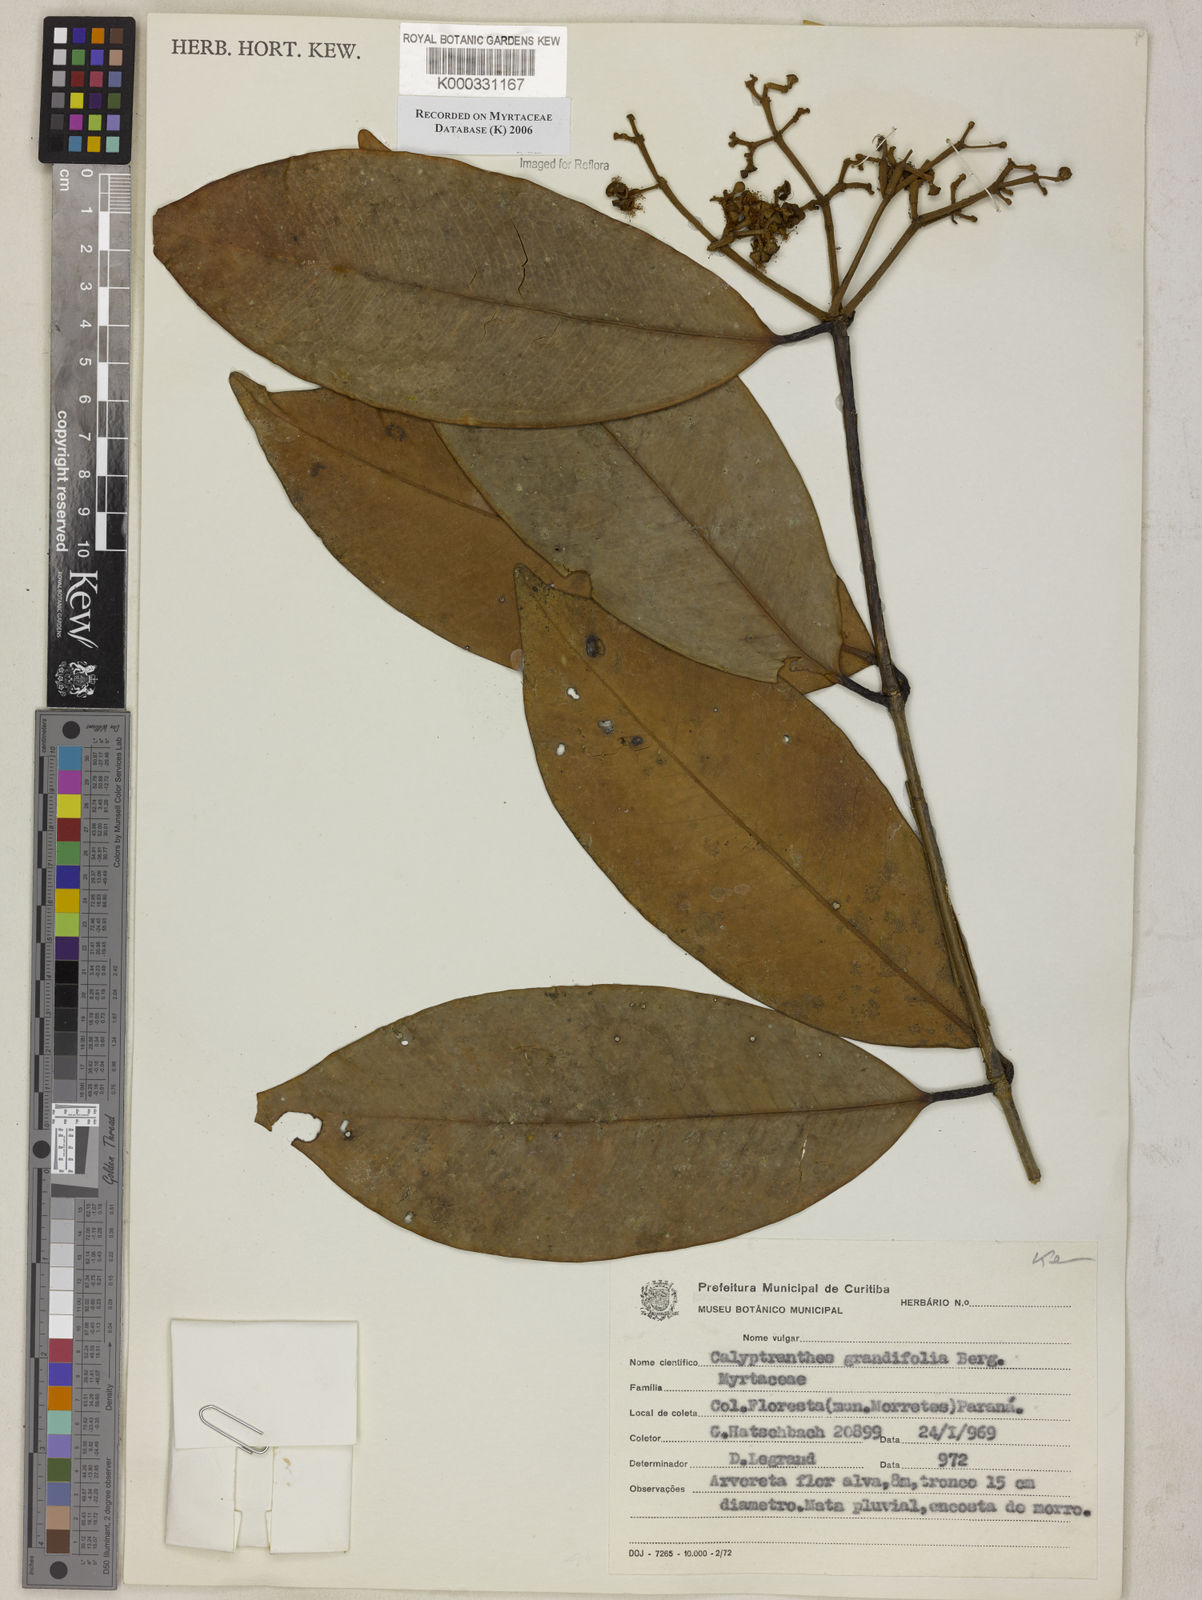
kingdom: Plantae
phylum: Tracheophyta
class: Magnoliopsida
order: Myrtales
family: Myrtaceae
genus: Calyptranthes
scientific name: Calyptranthes grandifolia
